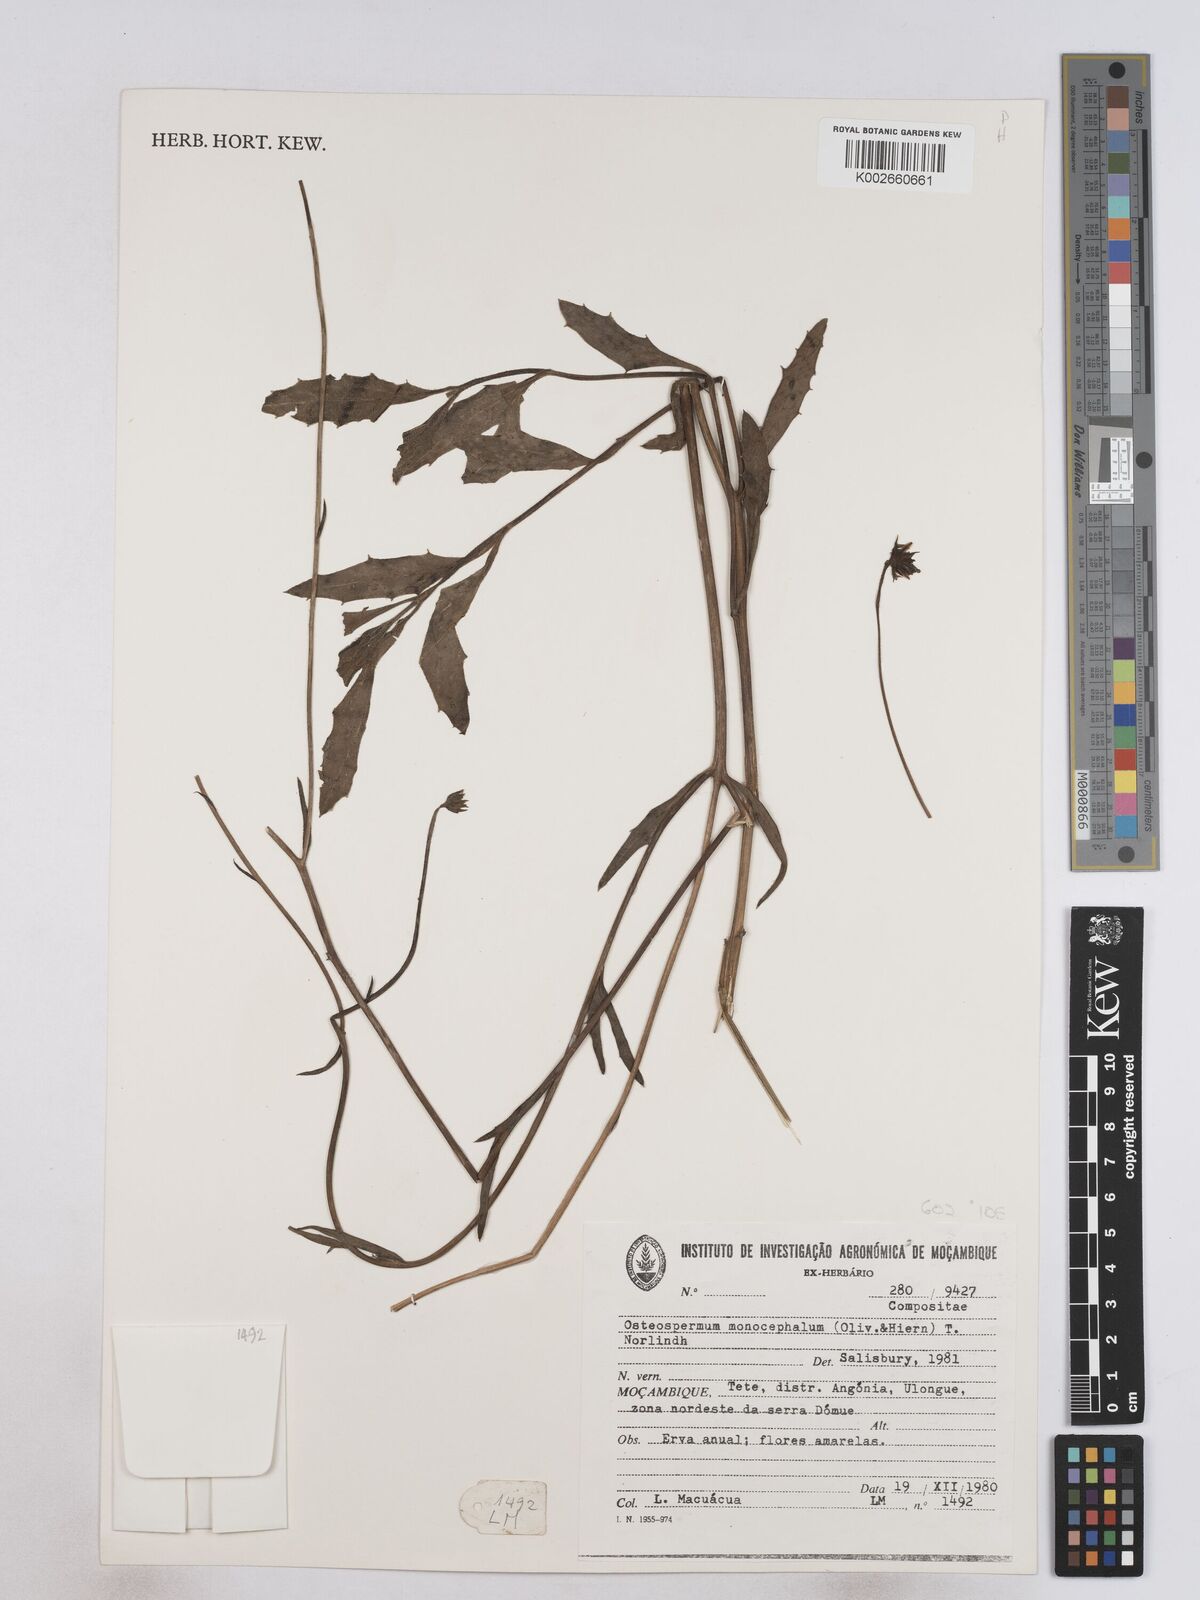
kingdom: Plantae
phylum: Tracheophyta
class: Magnoliopsida
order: Asterales
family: Asteraceae
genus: Osteospermum
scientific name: Osteospermum monocephalum
